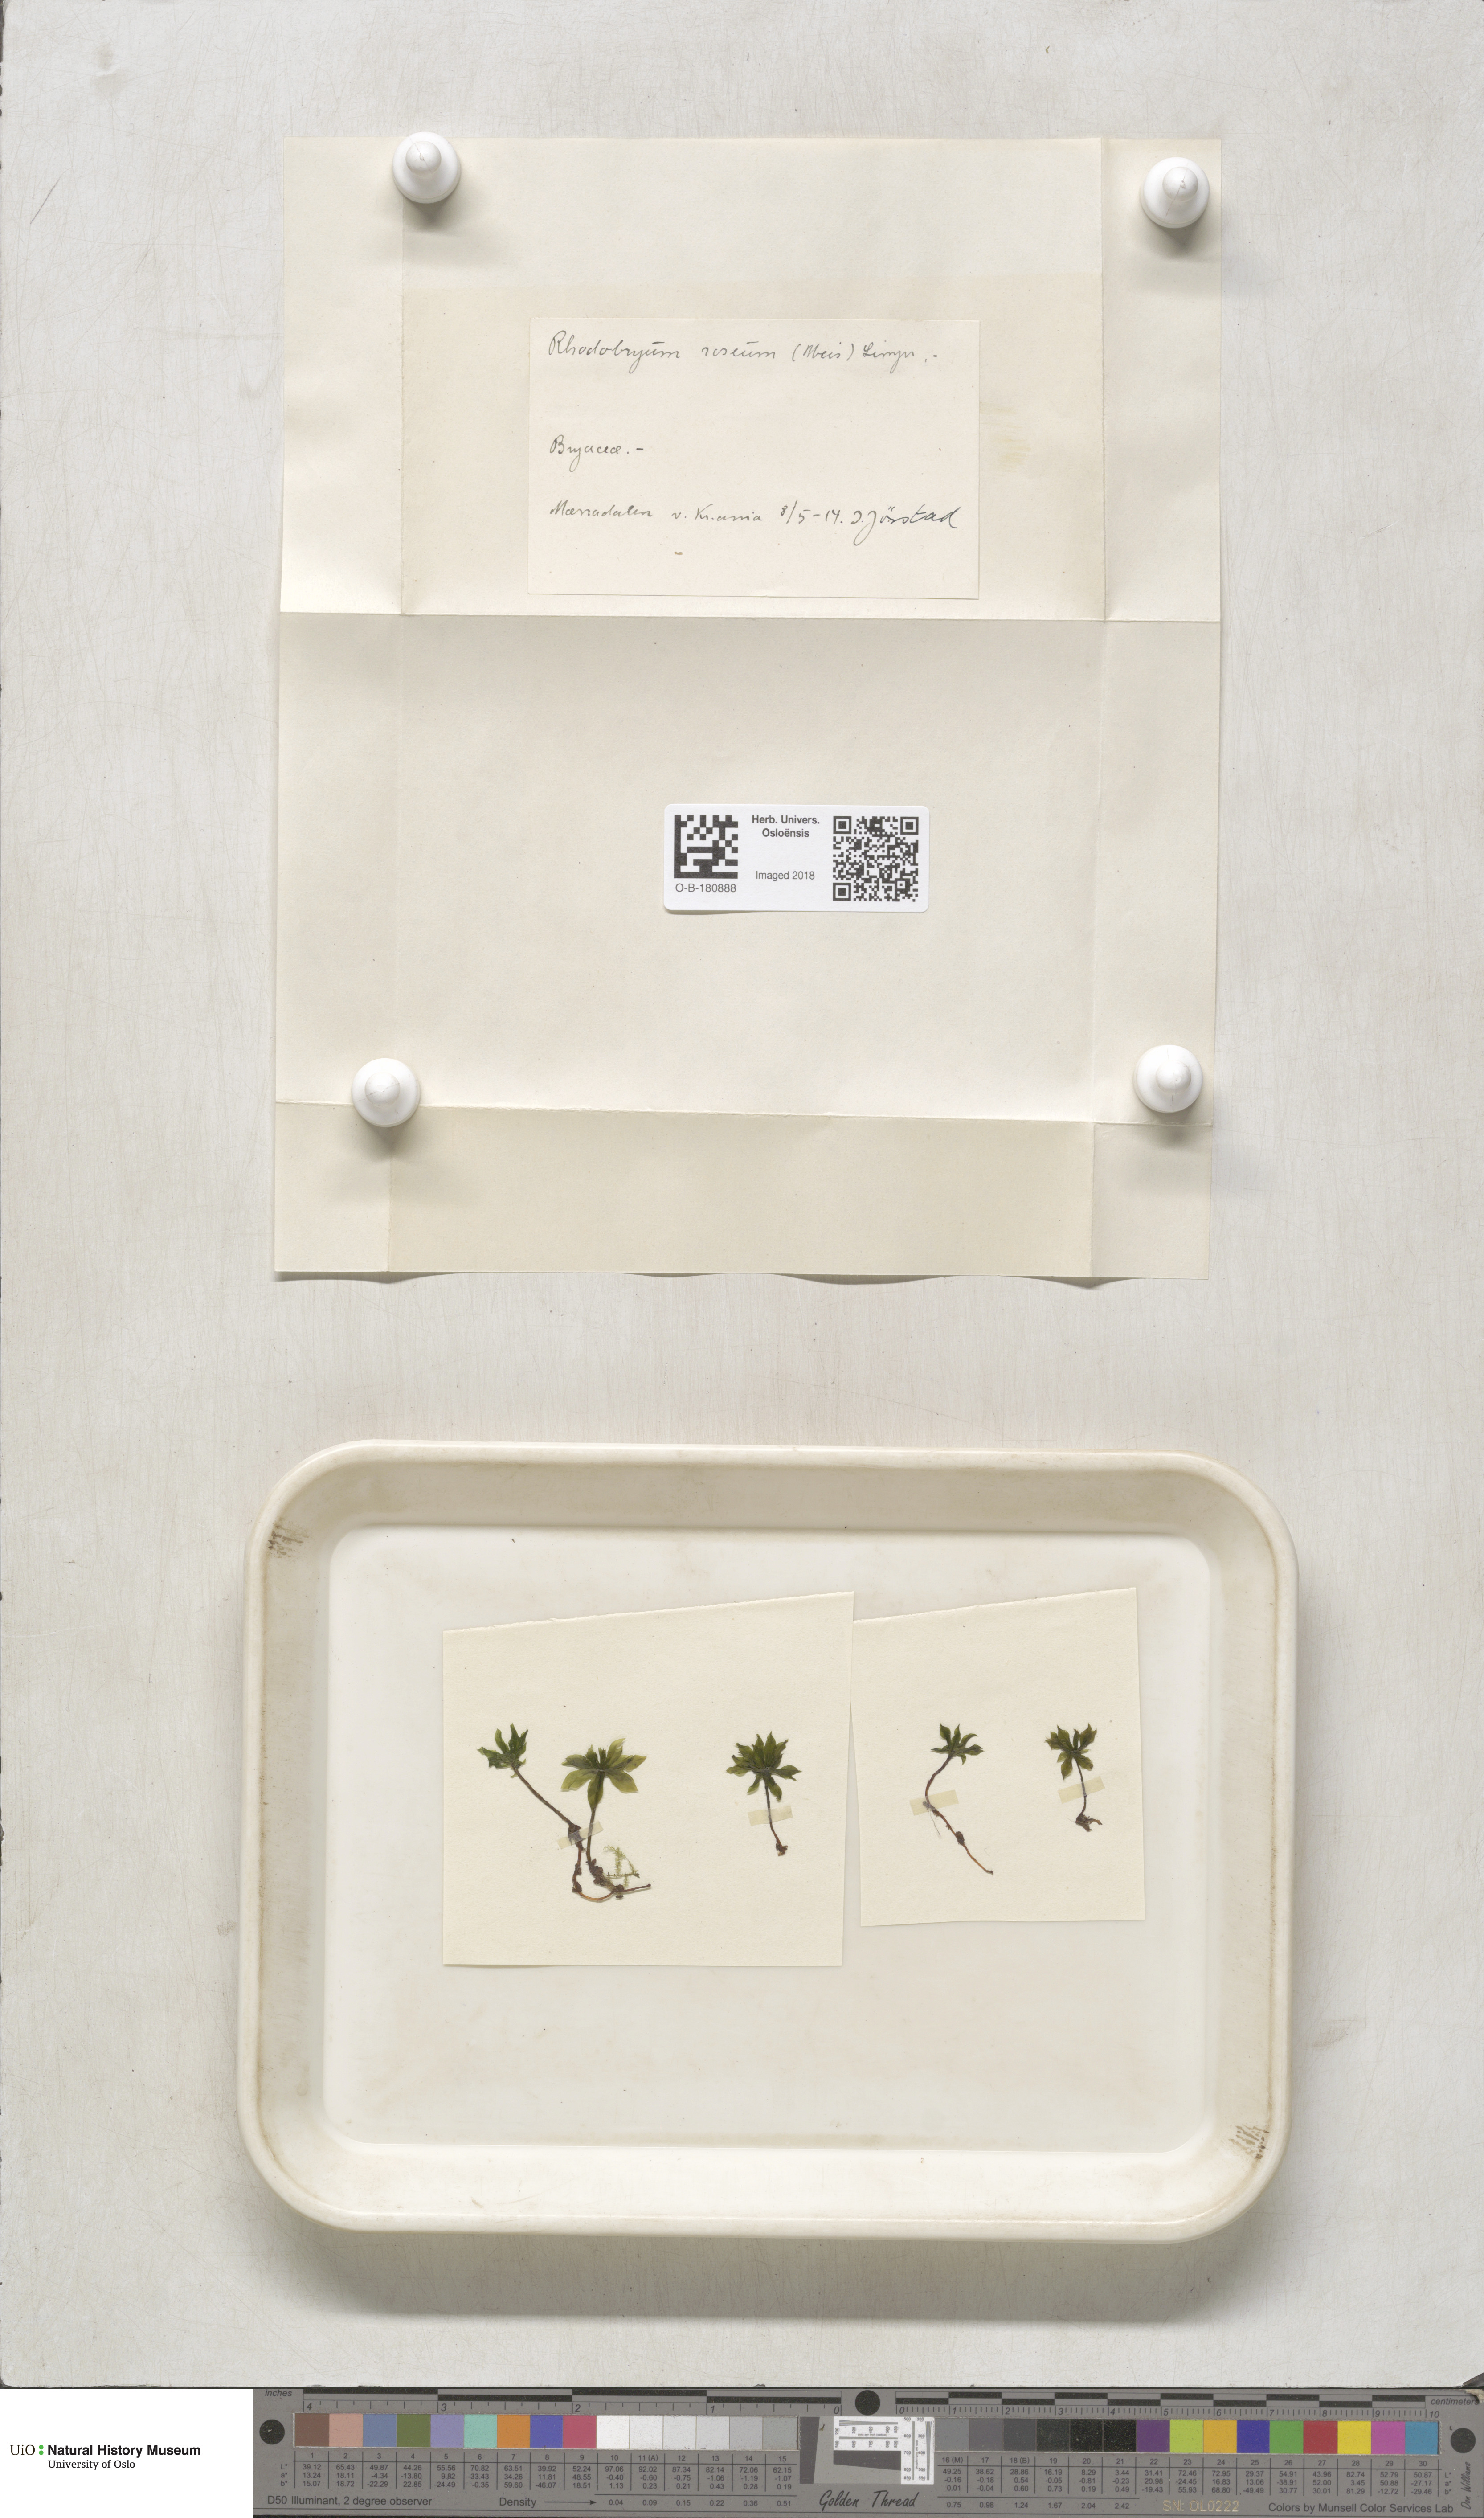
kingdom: Plantae
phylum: Bryophyta
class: Bryopsida
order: Bryales
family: Bryaceae
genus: Rhodobryum
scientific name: Rhodobryum roseum
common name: Rose-moss
